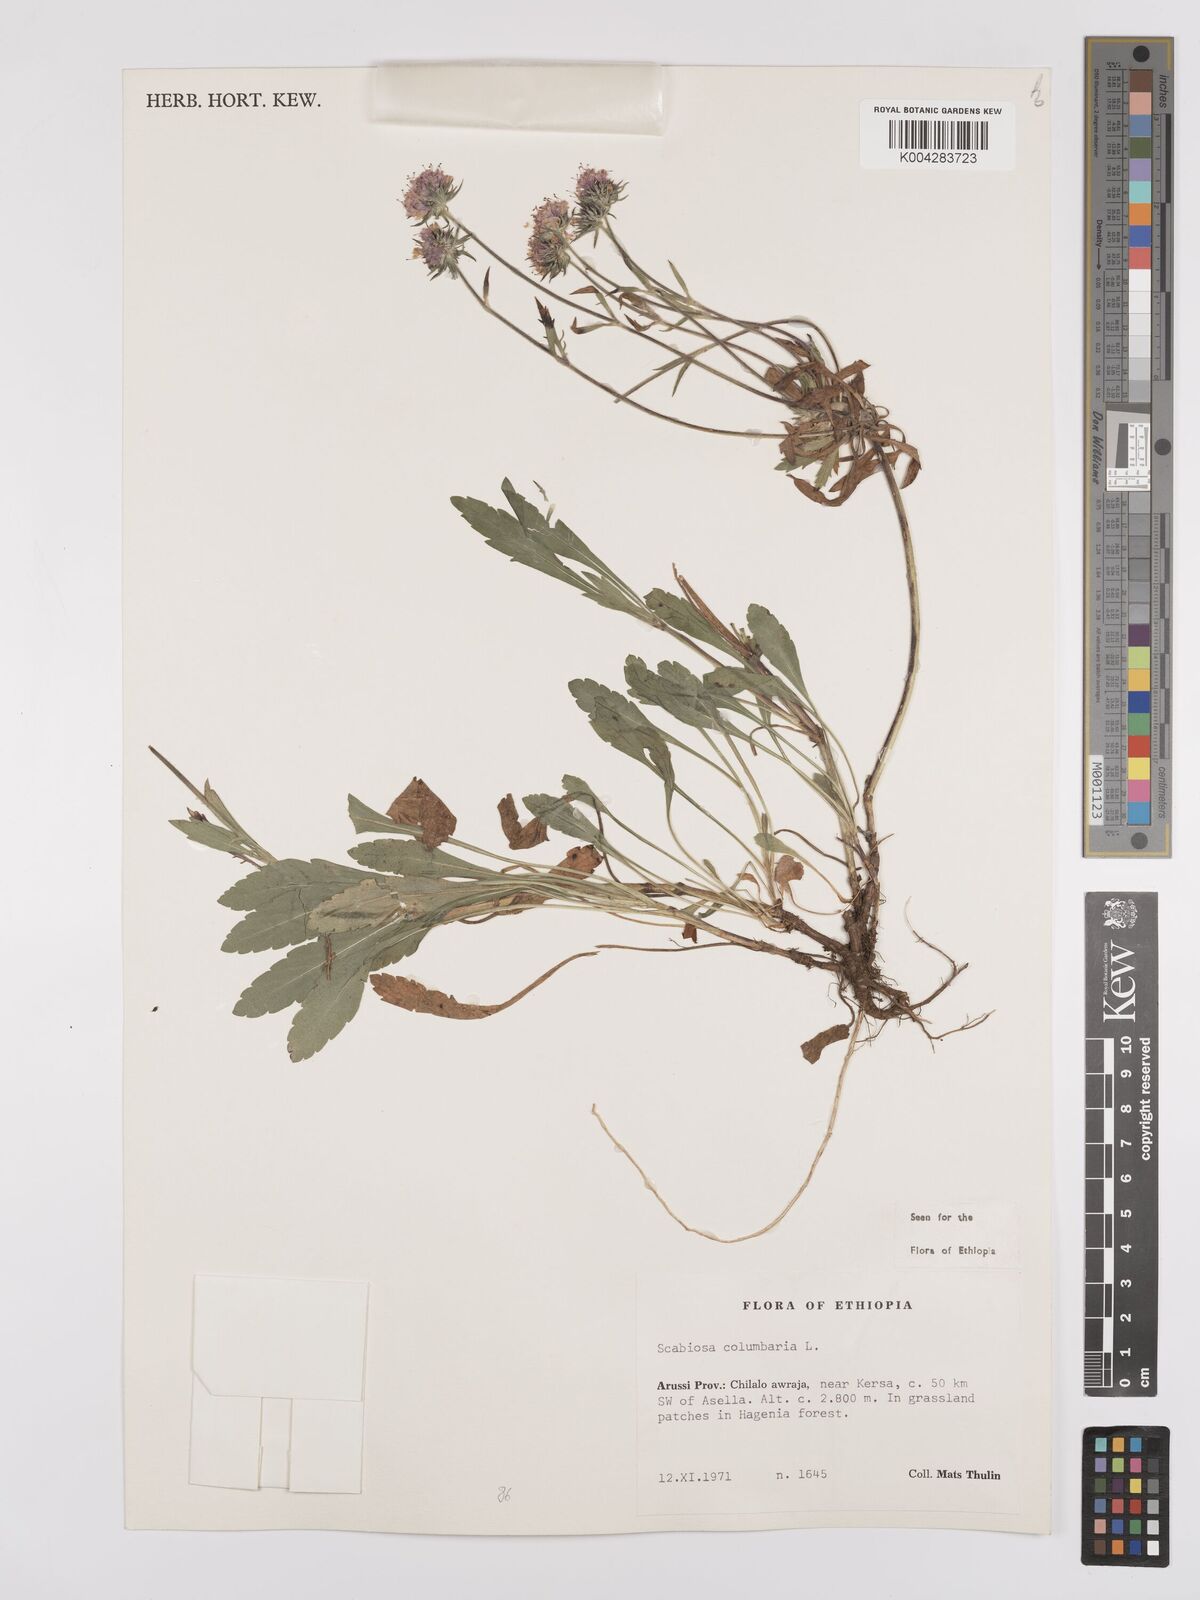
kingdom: Plantae
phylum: Tracheophyta
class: Magnoliopsida
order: Dipsacales
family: Caprifoliaceae
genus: Scabiosa
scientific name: Scabiosa columbaria
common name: Small scabious
